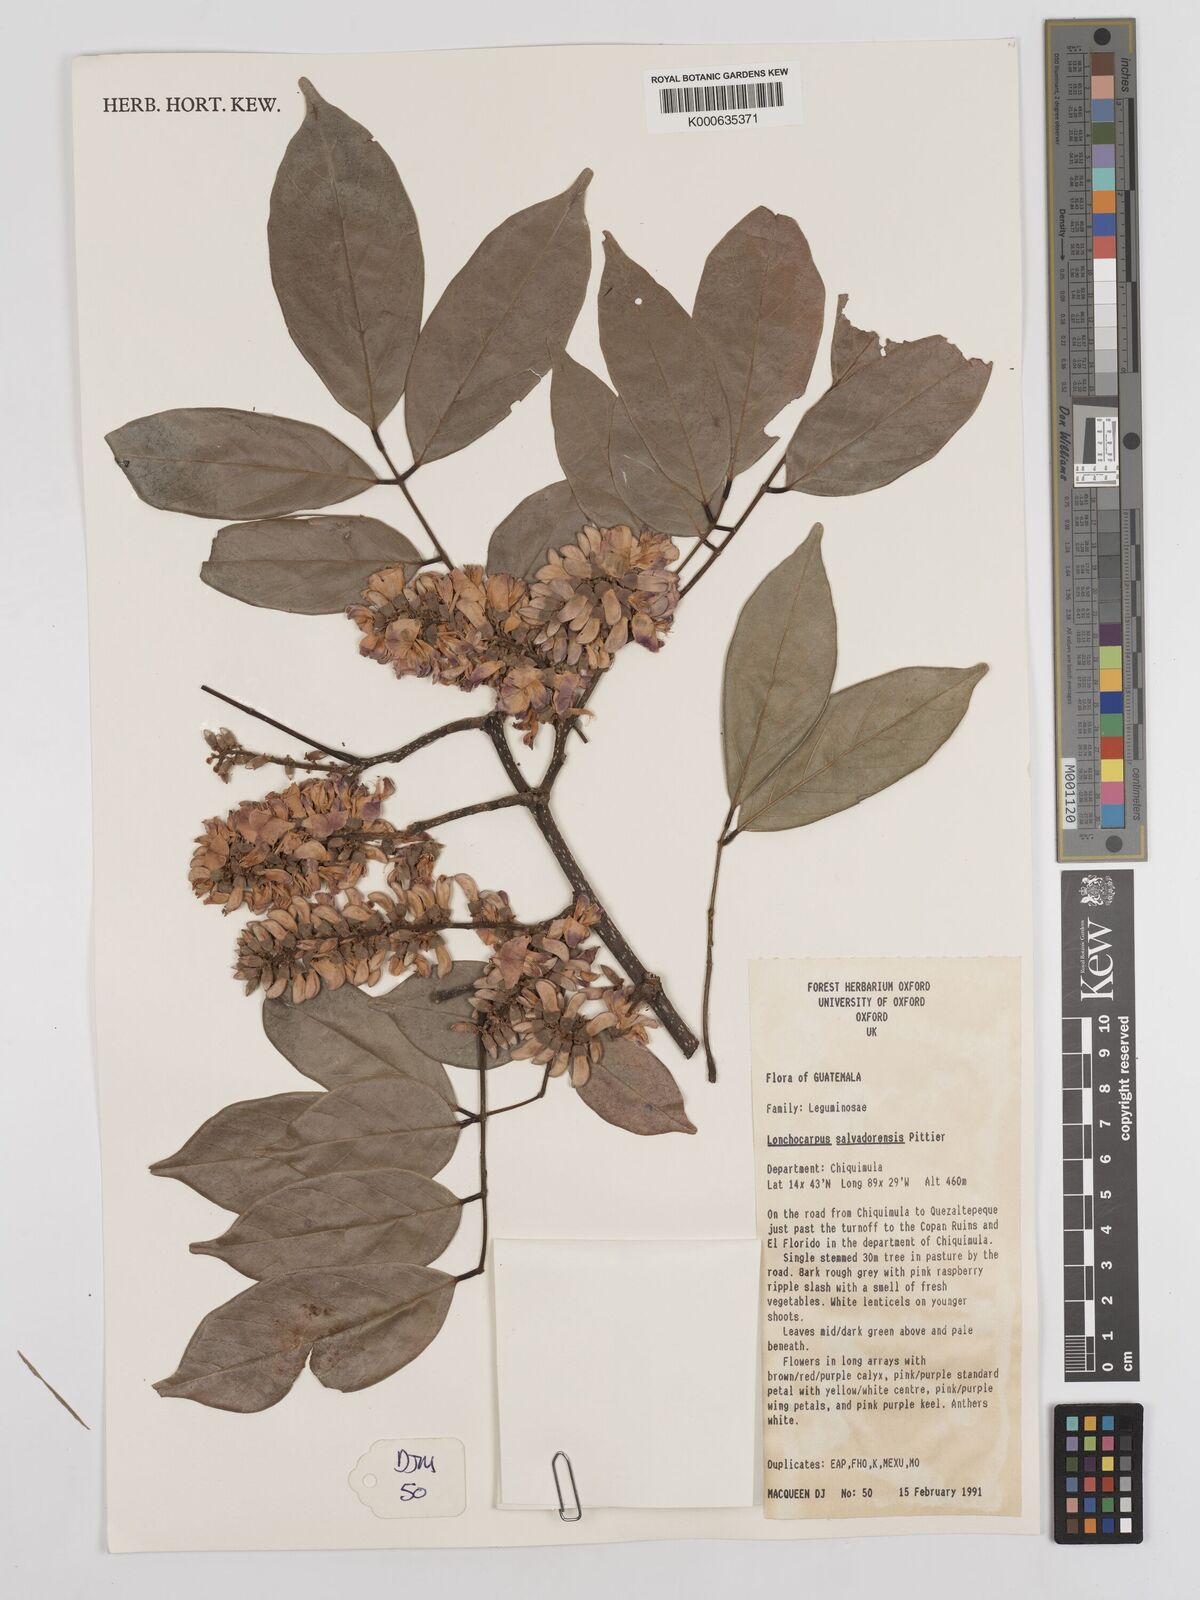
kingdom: Plantae
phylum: Tracheophyta
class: Magnoliopsida
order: Fabales
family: Fabaceae
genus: Lonchocarpus
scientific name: Lonchocarpus salvadorensis
